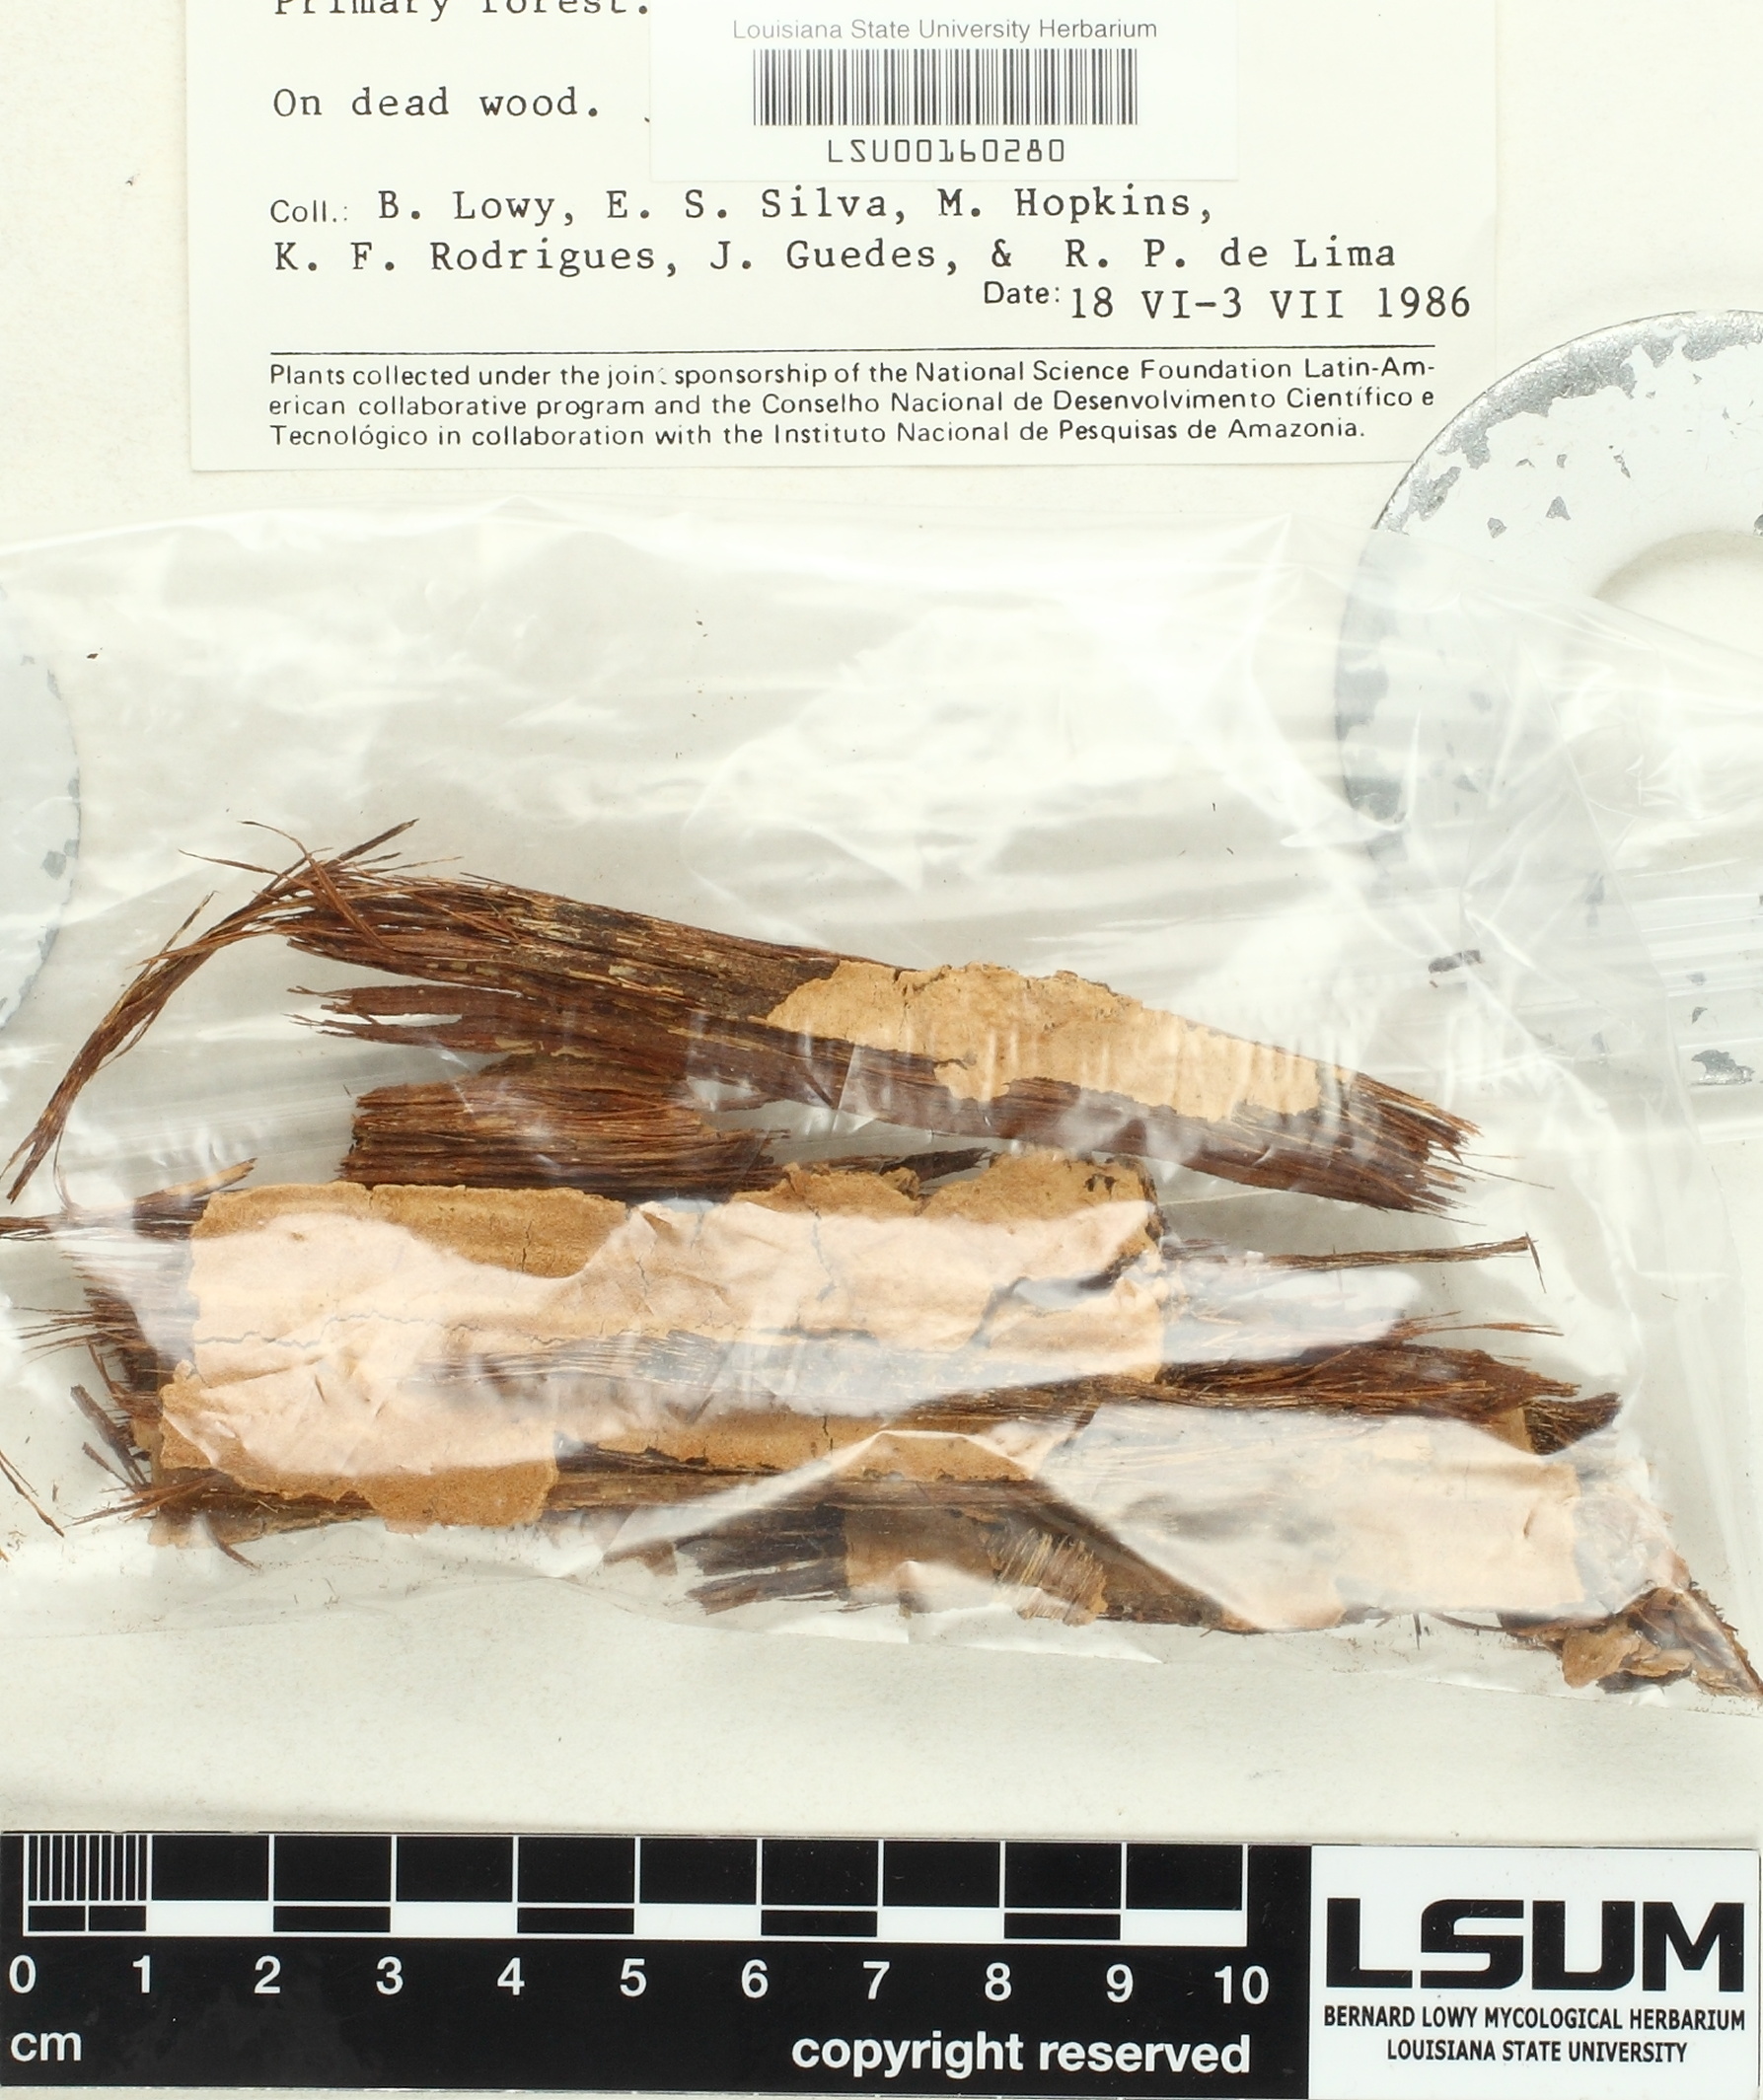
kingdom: Fungi
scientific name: Fungi
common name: Fungi
